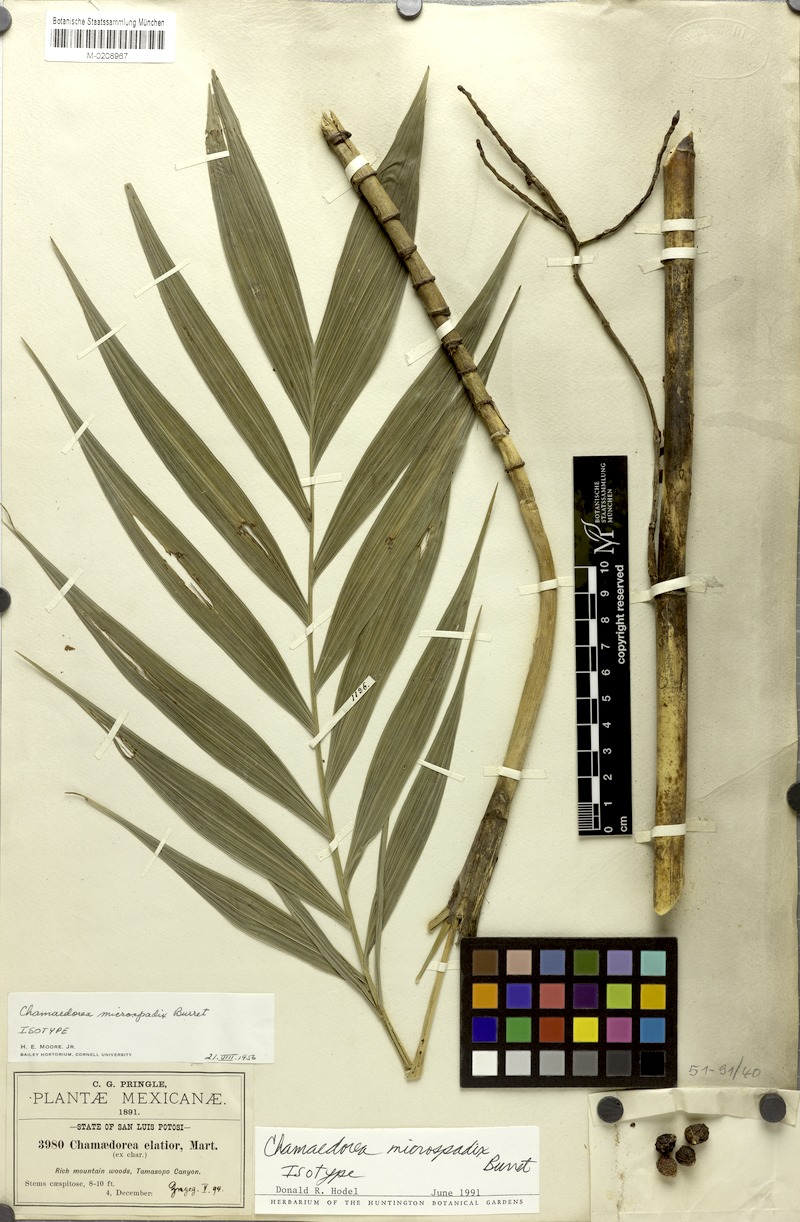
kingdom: Plantae
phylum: Tracheophyta
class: Liliopsida
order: Arecales
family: Arecaceae
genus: Chamaedorea
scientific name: Chamaedorea microspadix
